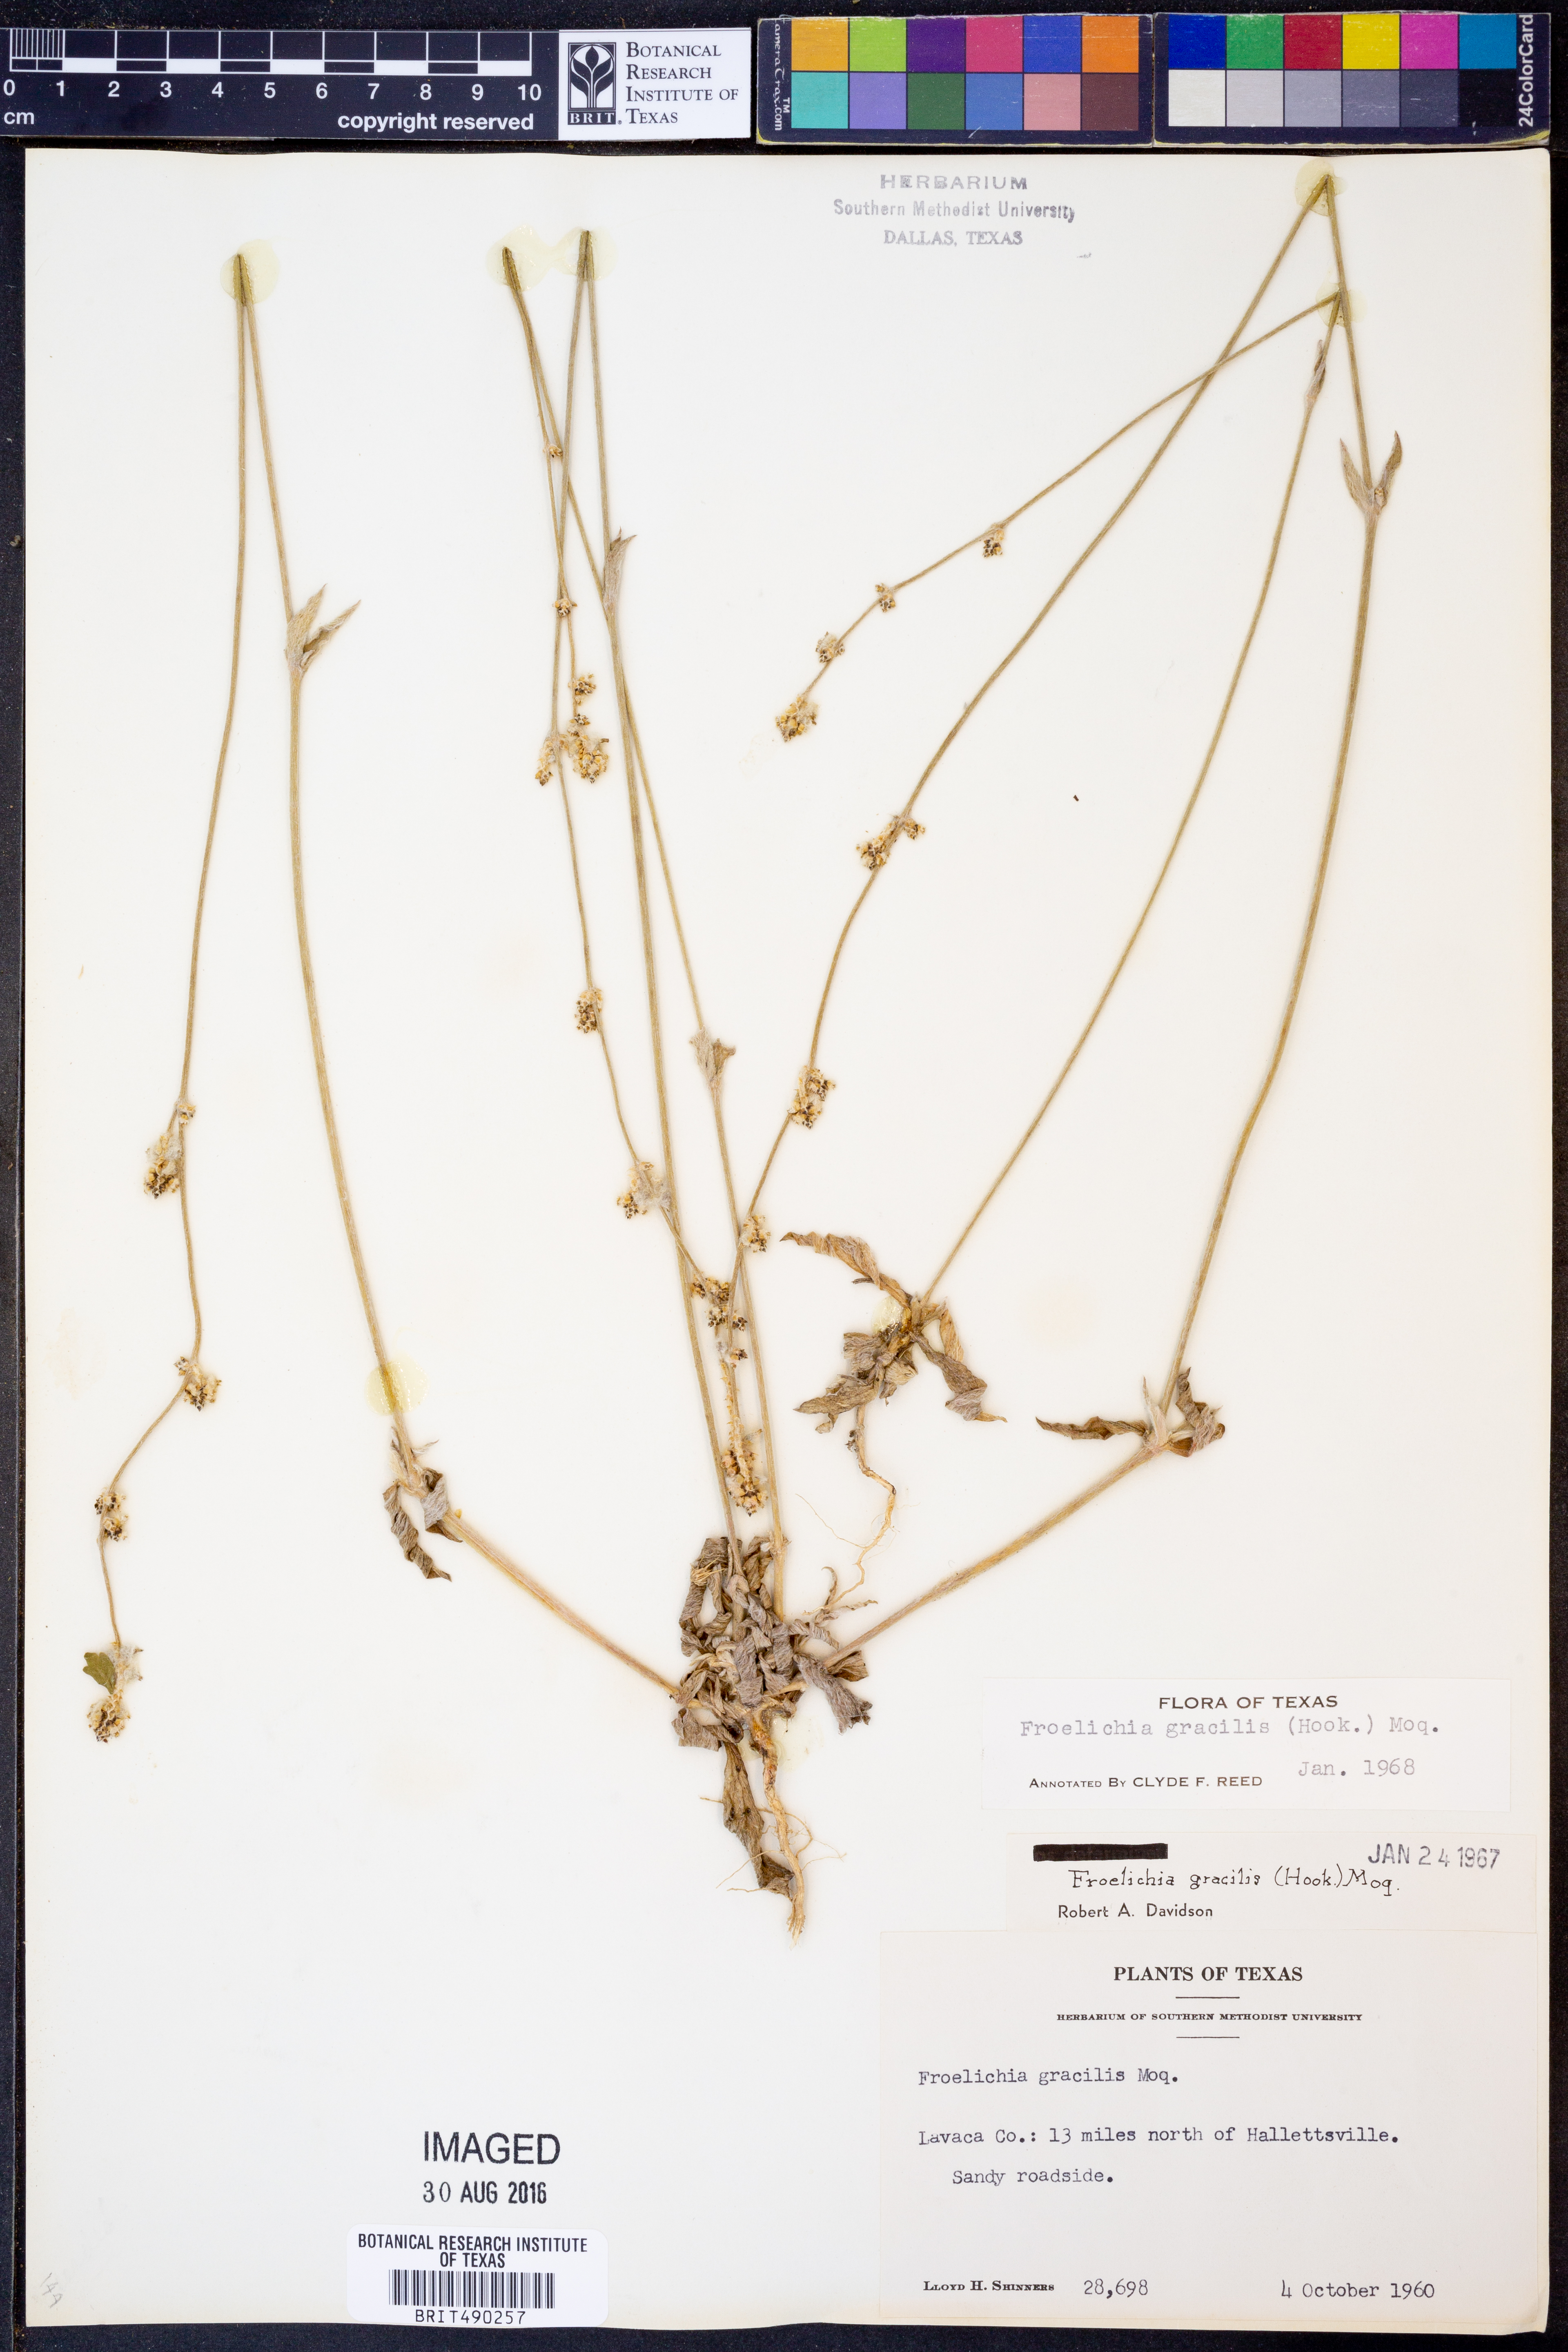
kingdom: Plantae
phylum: Tracheophyta
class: Magnoliopsida
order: Caryophyllales
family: Amaranthaceae
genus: Froelichia
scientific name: Froelichia gracilis
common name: Slender cottonweed
